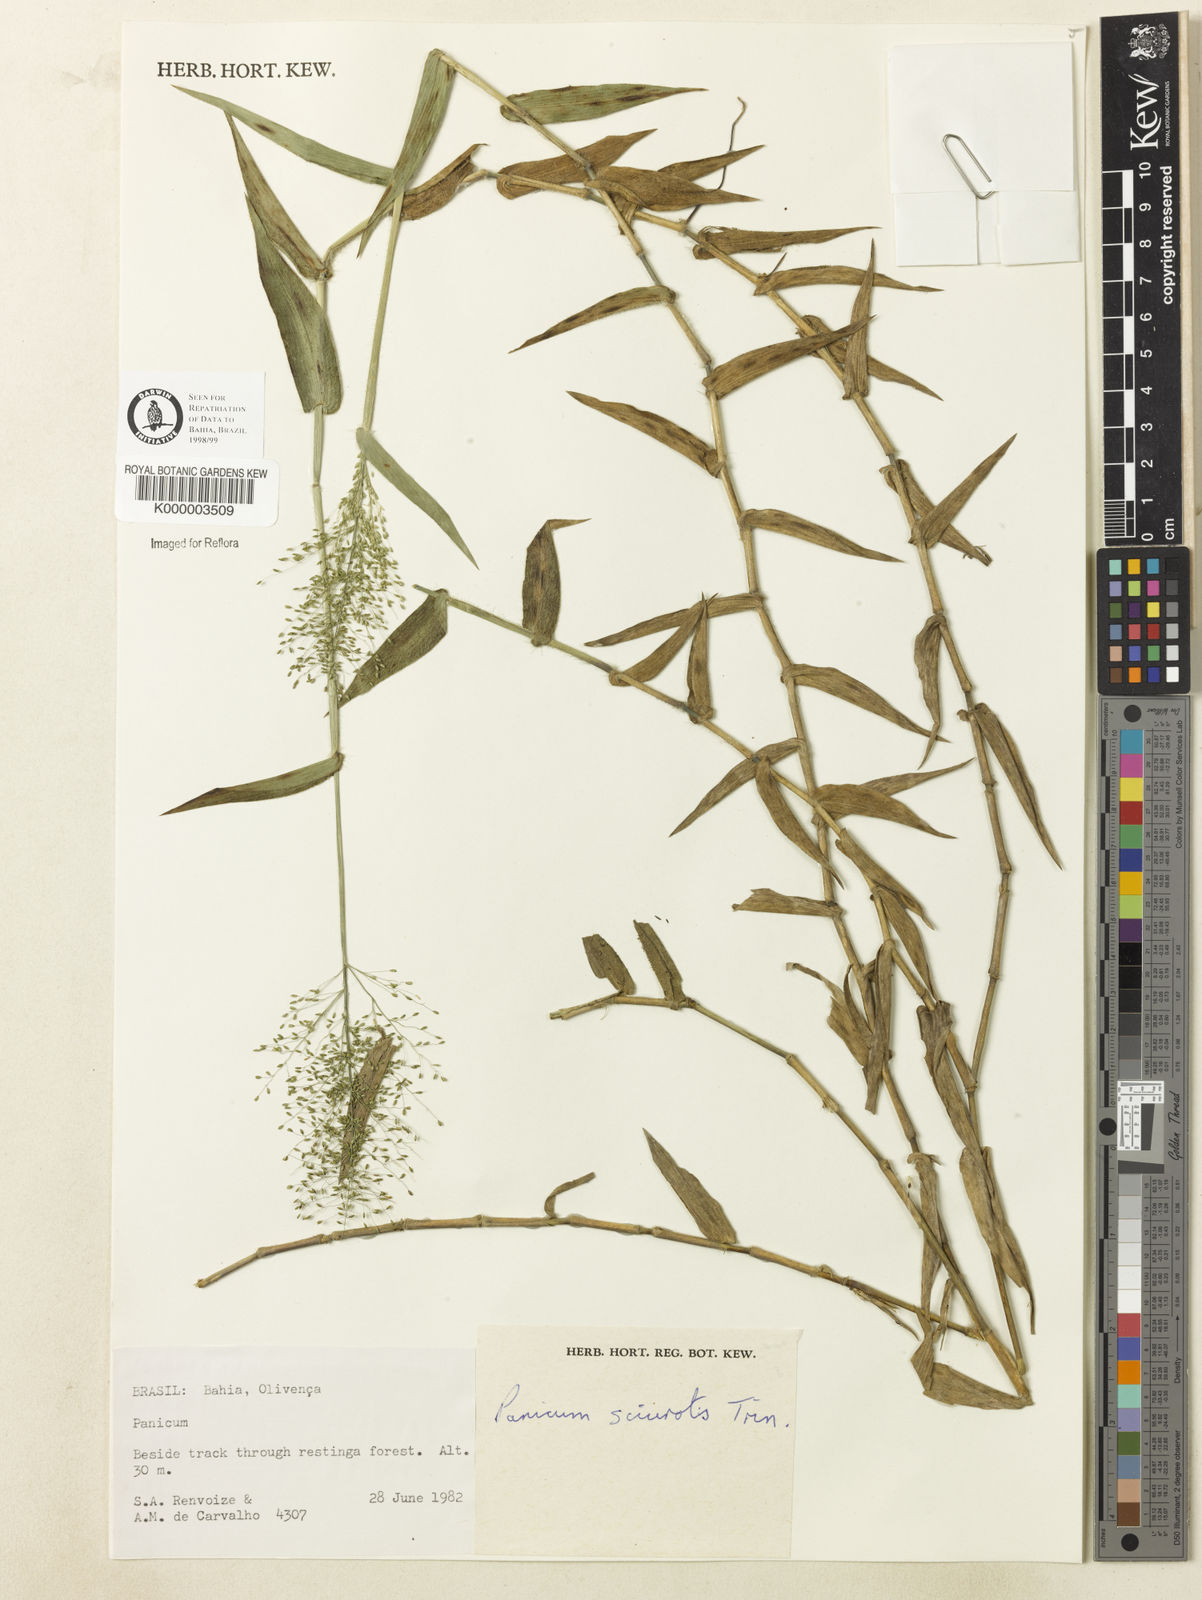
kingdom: Plantae
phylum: Tracheophyta
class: Liliopsida
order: Poales
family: Poaceae
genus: Dichanthelium
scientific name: Dichanthelium sciurotoides
